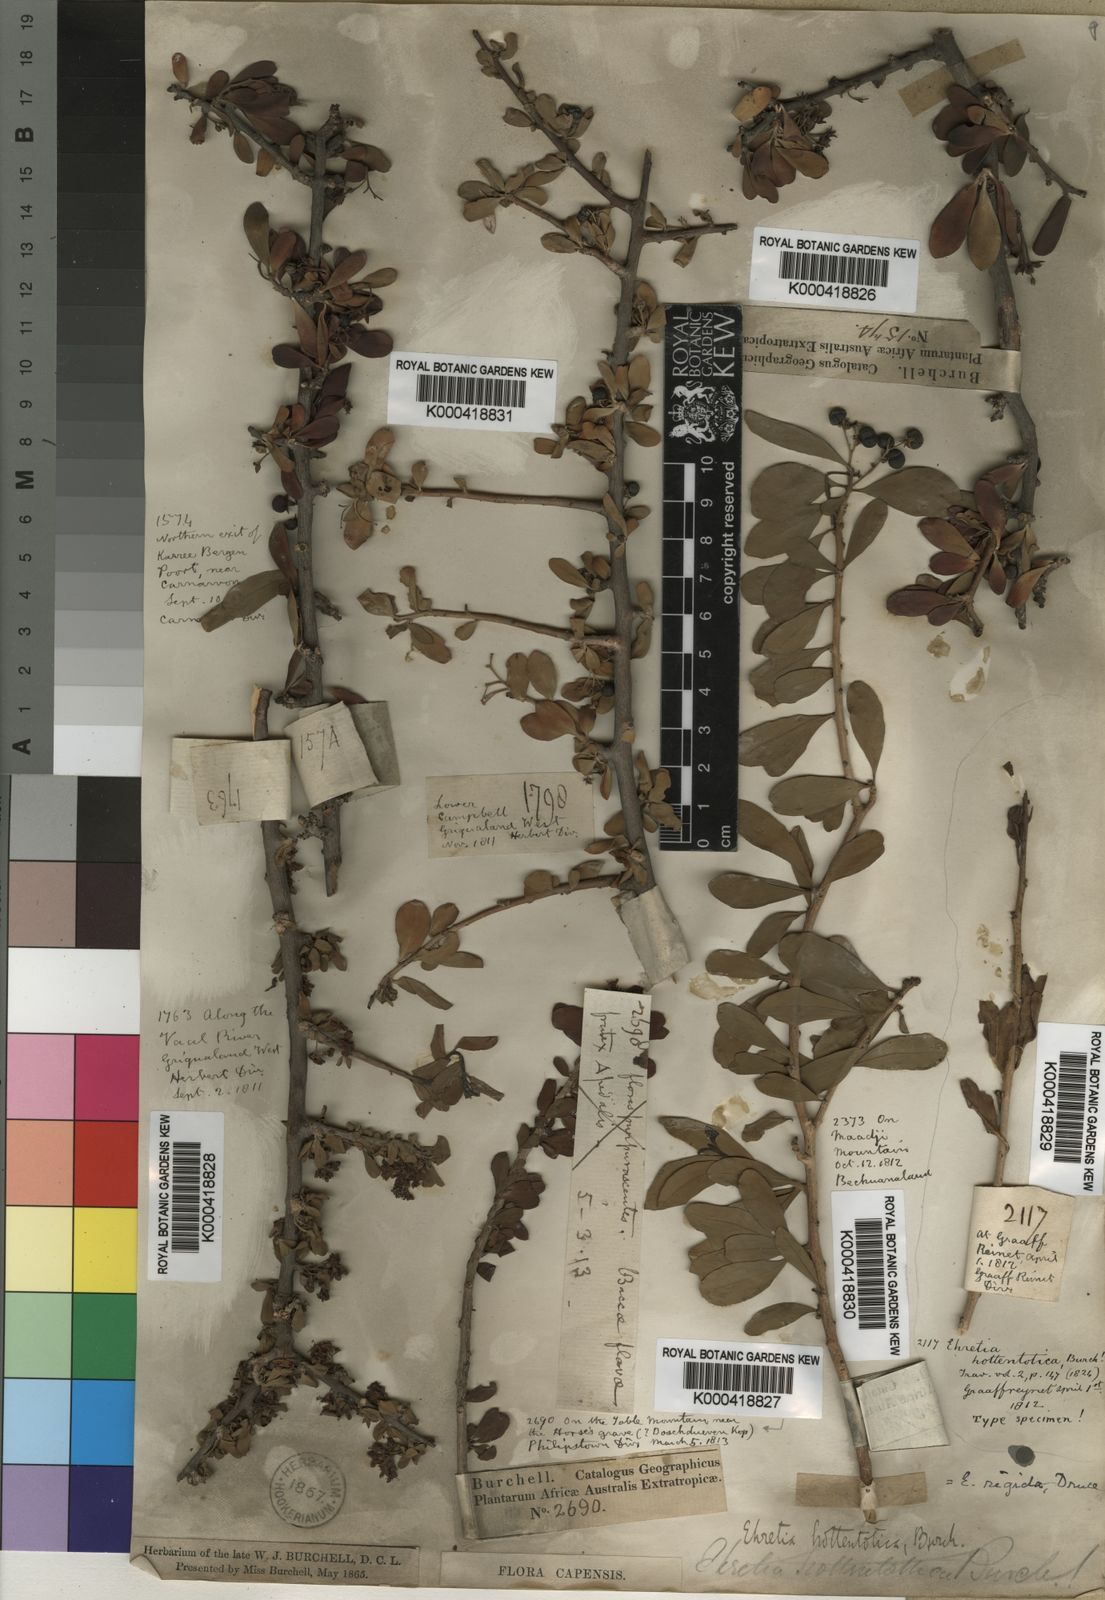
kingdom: Plantae
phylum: Tracheophyta
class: Magnoliopsida
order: Boraginales
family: Ehretiaceae
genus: Ehretia
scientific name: Ehretia rigida
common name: Cape lilac
